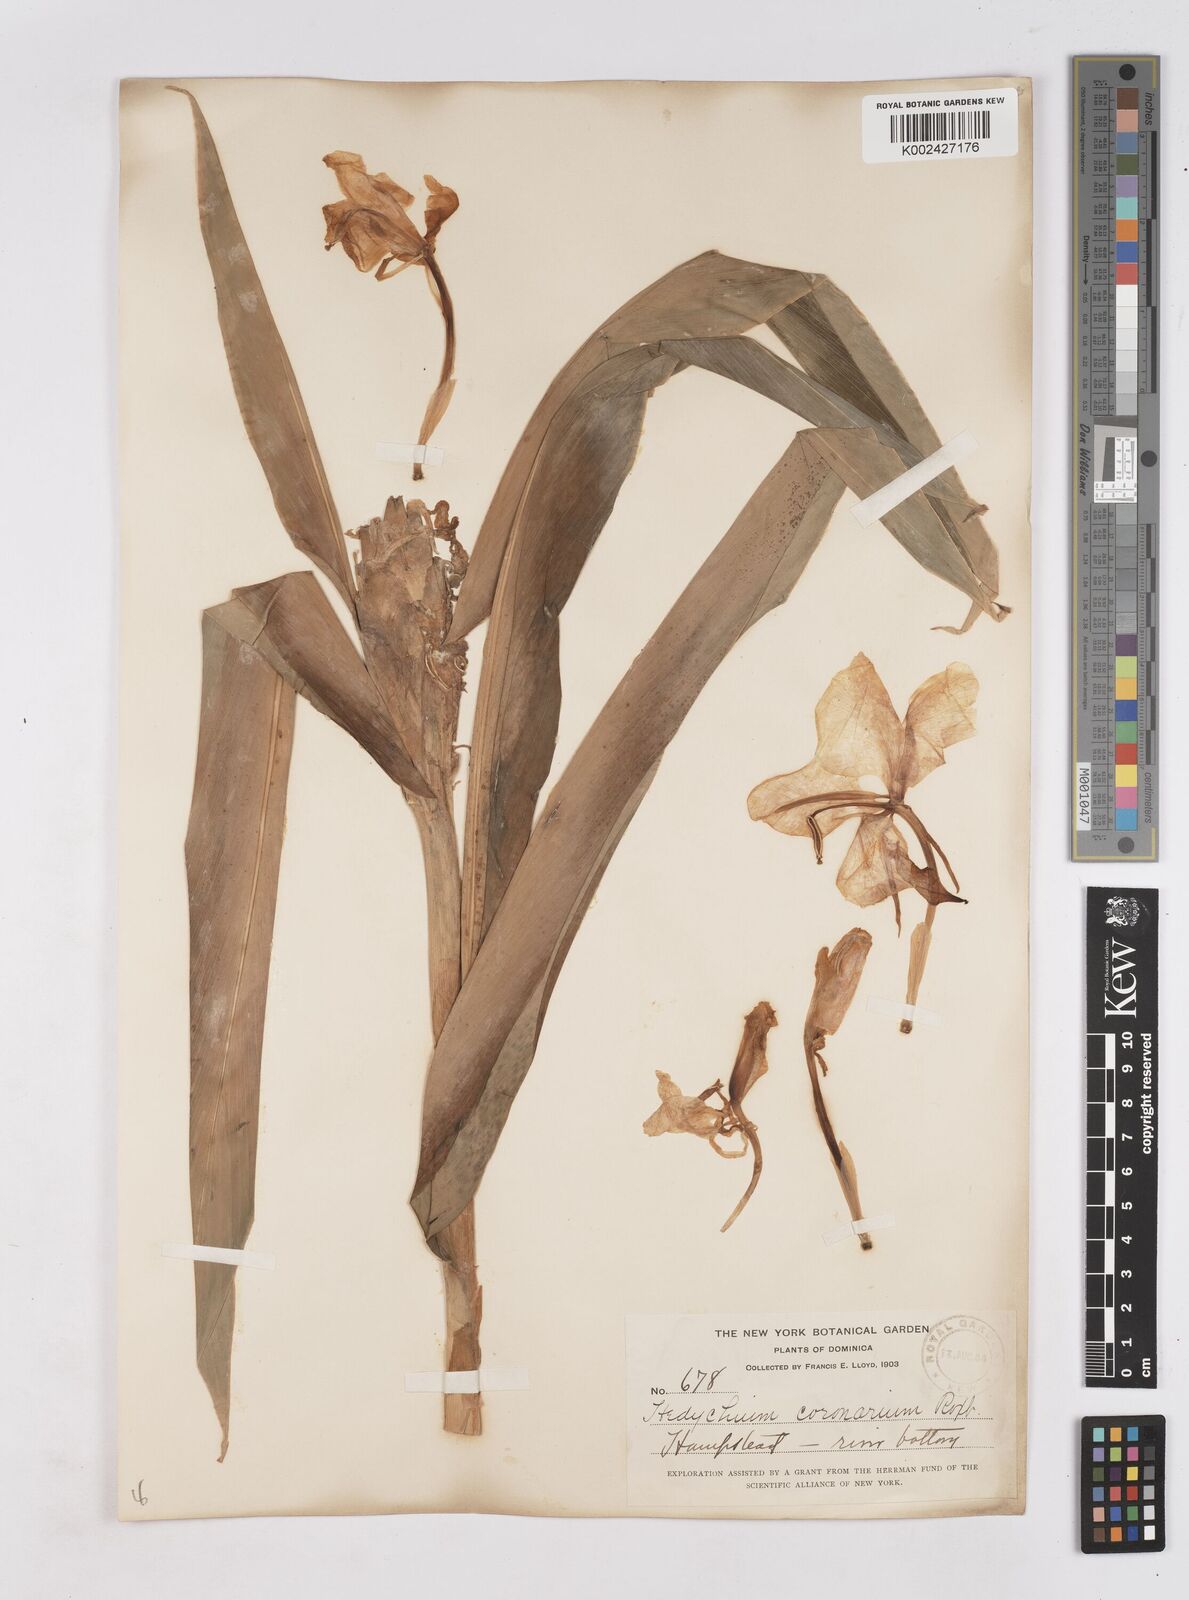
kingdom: Plantae
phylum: Tracheophyta
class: Liliopsida
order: Zingiberales
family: Zingiberaceae
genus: Hedychium
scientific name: Hedychium coronarium
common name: White garland-lily
